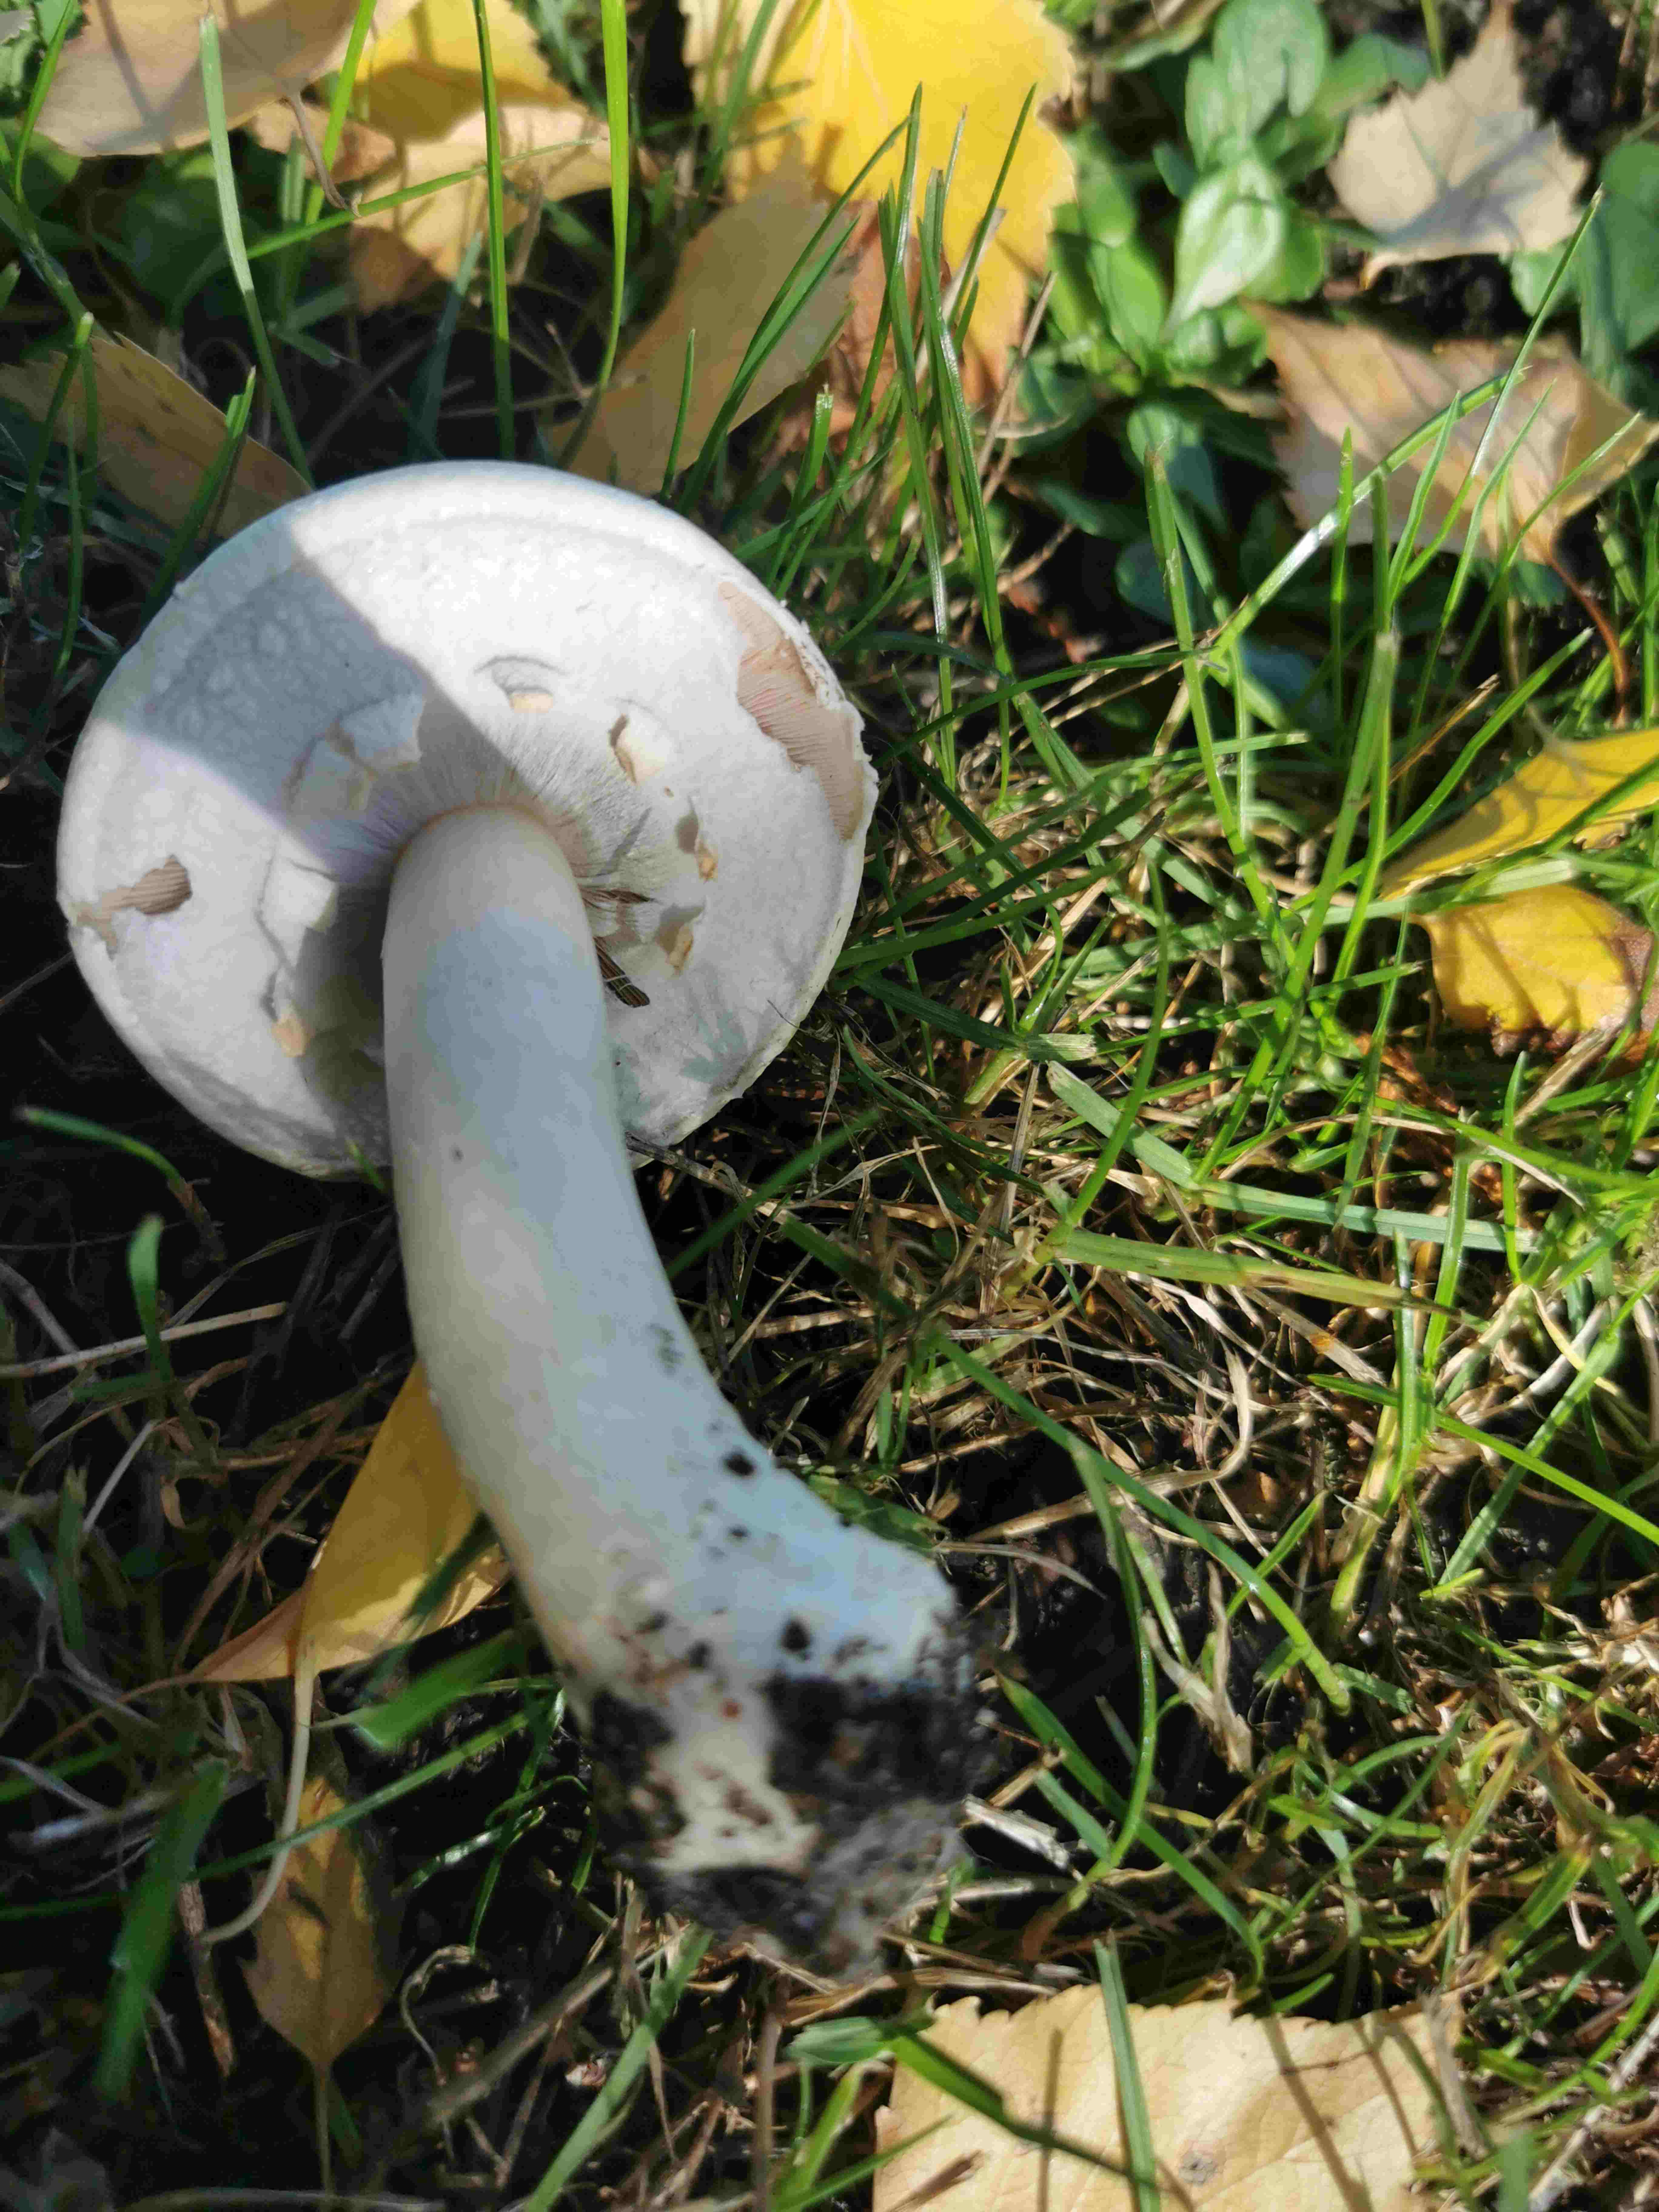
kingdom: Fungi
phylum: Basidiomycota
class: Agaricomycetes
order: Agaricales
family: Agaricaceae
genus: Agaricus
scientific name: Agaricus xanthodermus
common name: karbol-champignon
